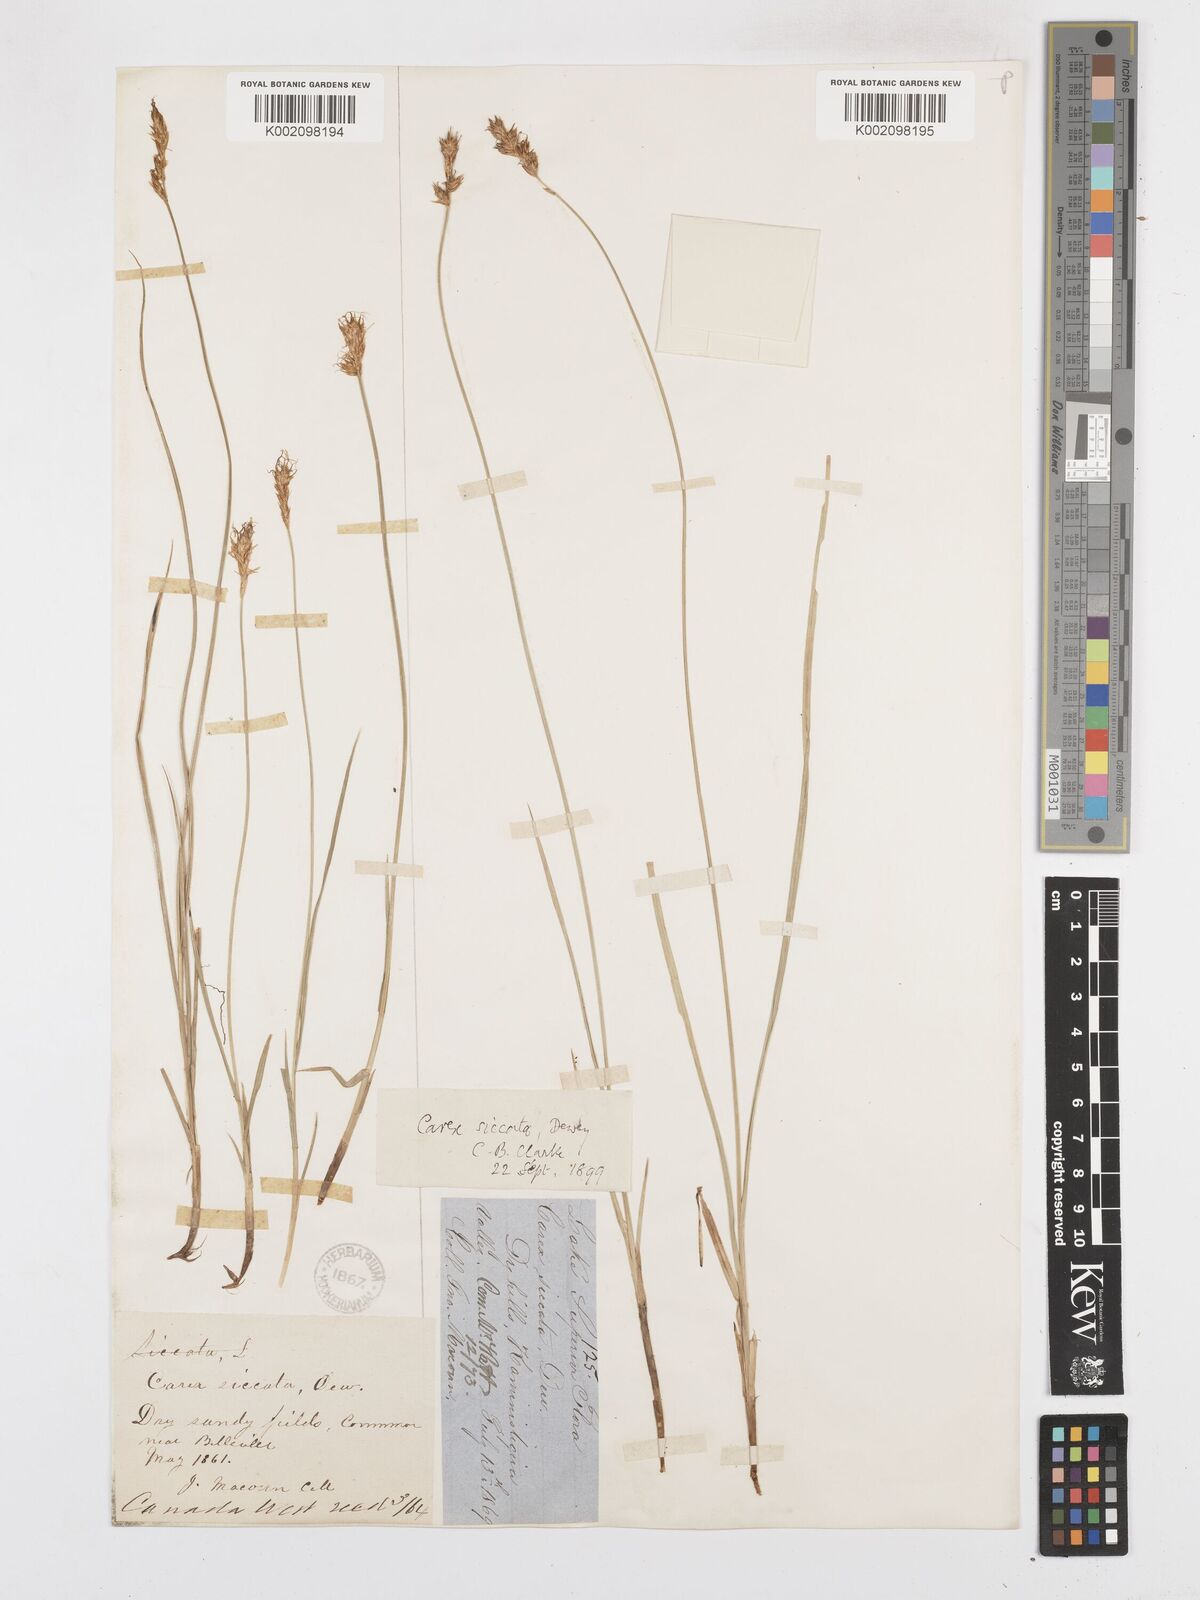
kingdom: Plantae
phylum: Tracheophyta
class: Liliopsida
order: Poales
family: Cyperaceae
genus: Carex
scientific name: Carex foenea
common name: Bronze sedge
